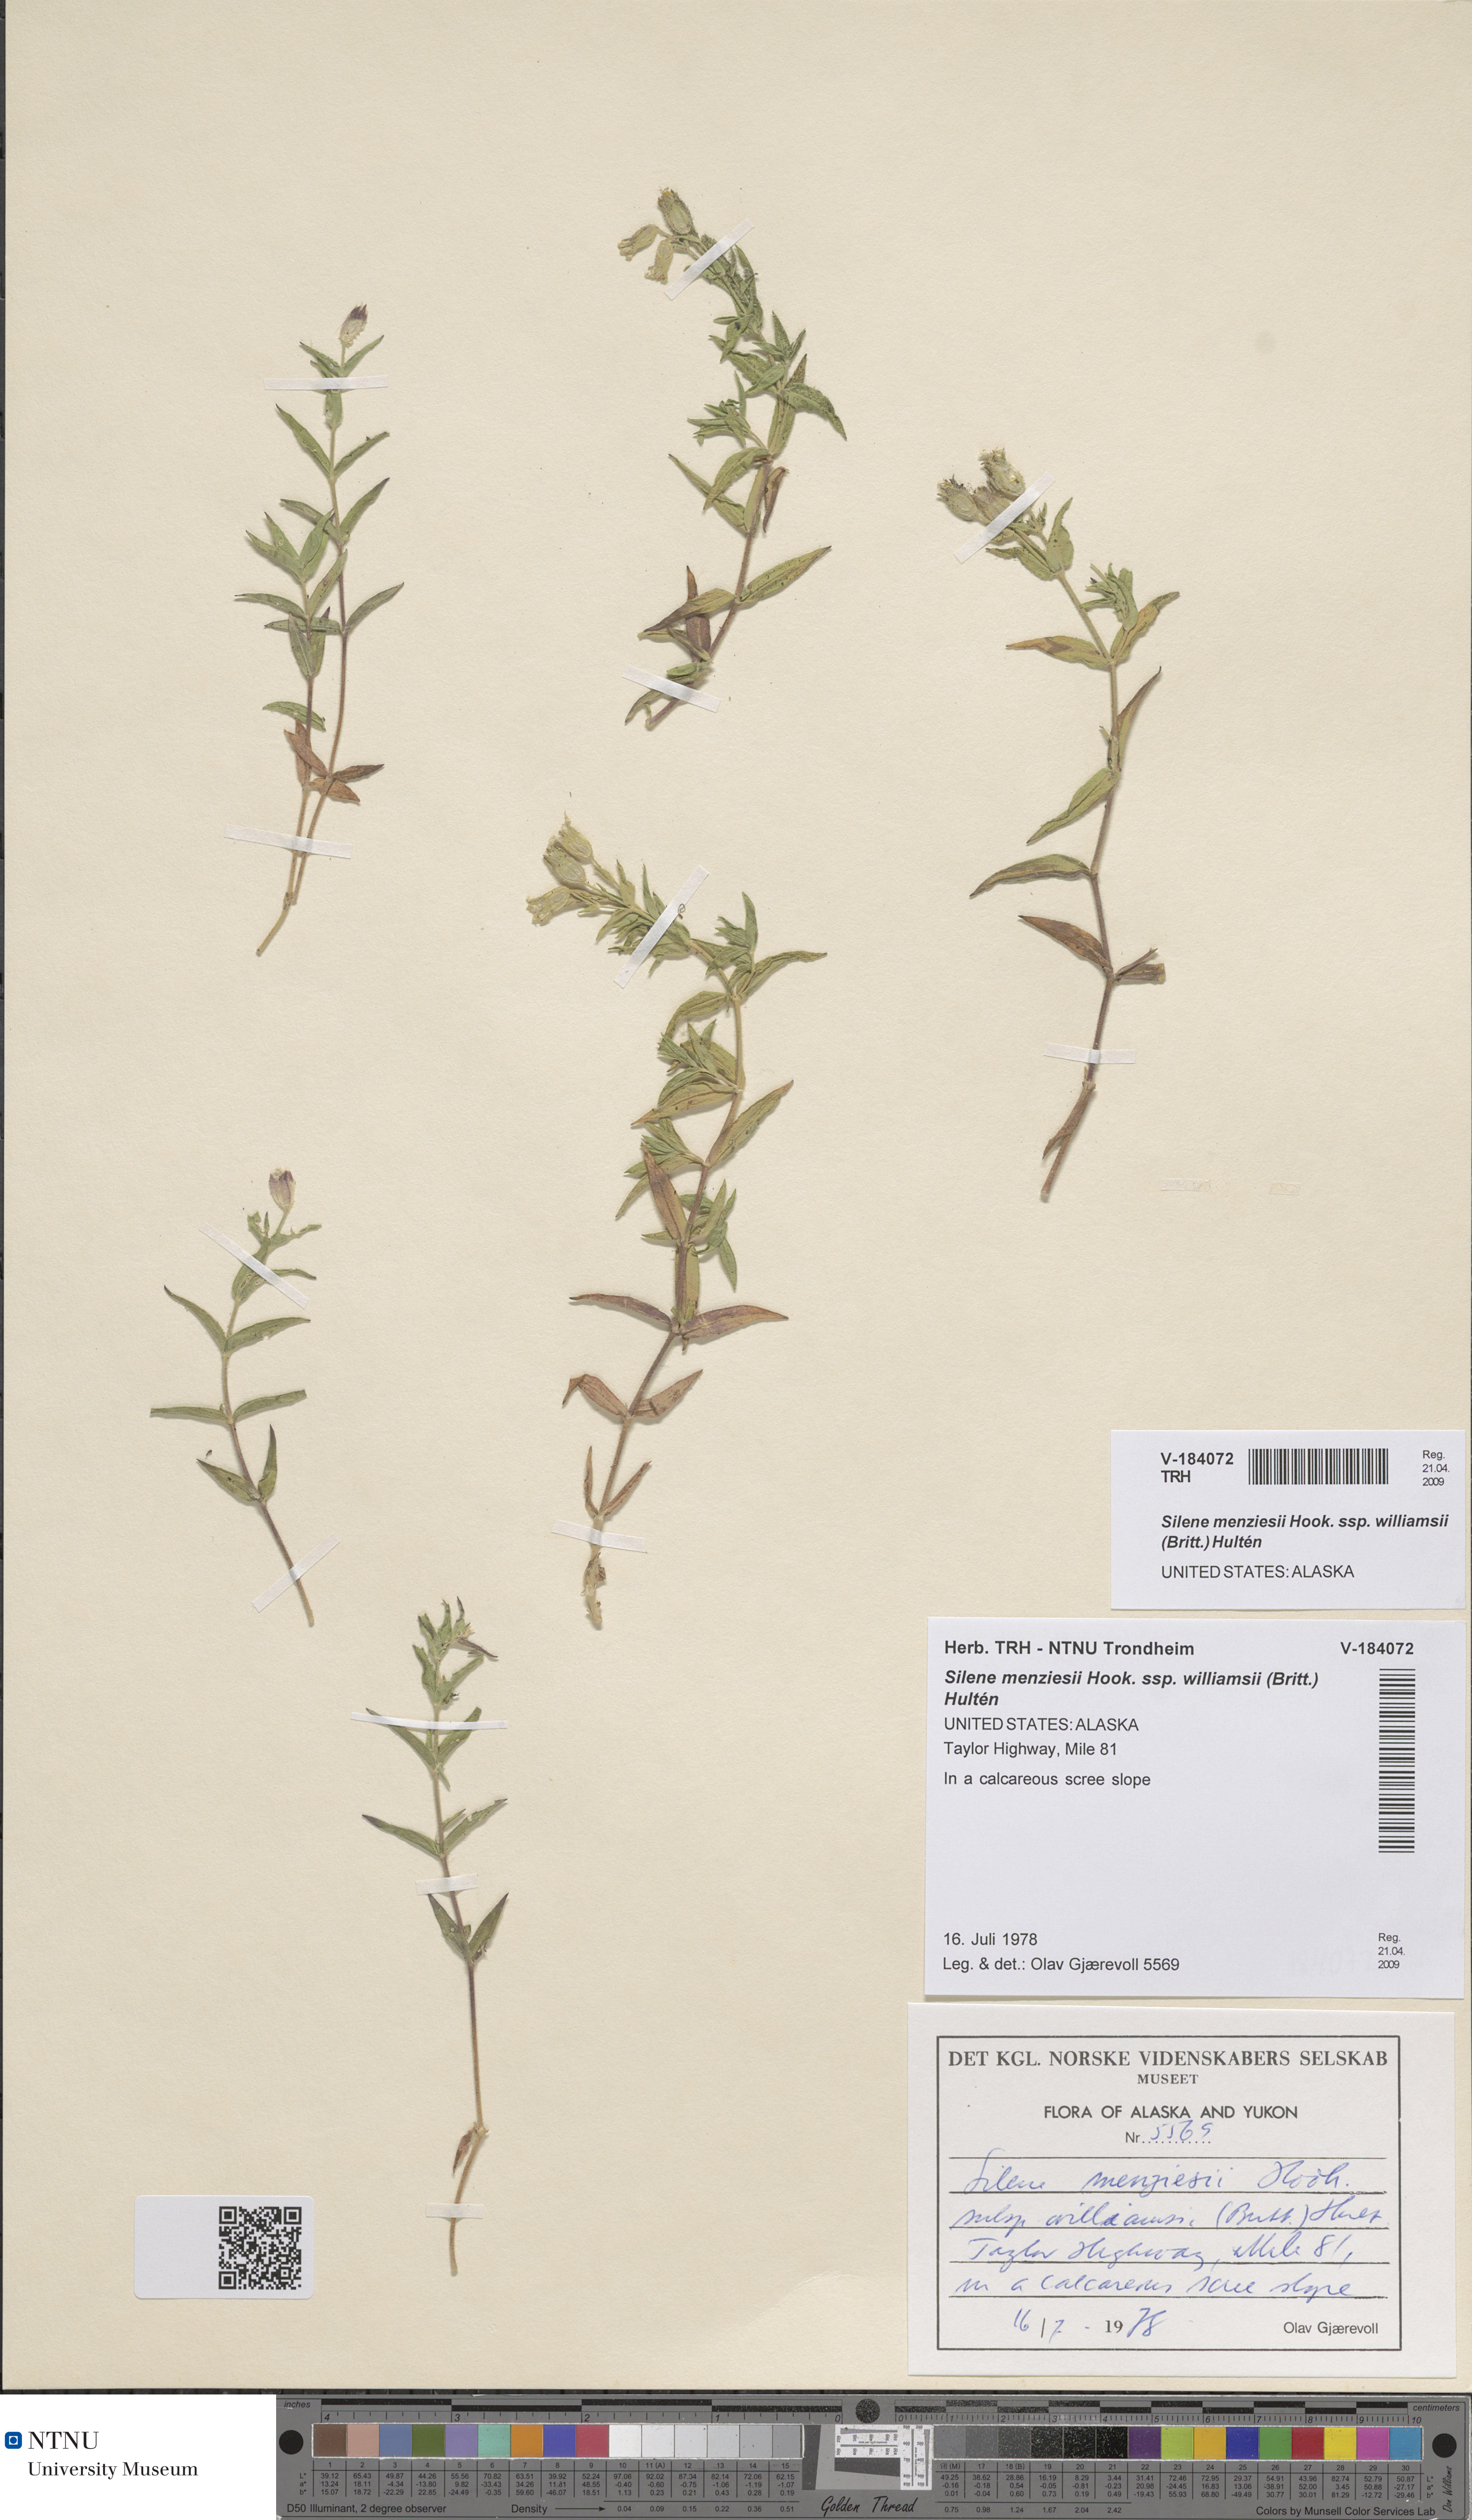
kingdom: Plantae
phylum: Tracheophyta
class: Magnoliopsida
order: Caryophyllales
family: Caryophyllaceae
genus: Silene
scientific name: Silene williamsii
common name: Williams' campion
